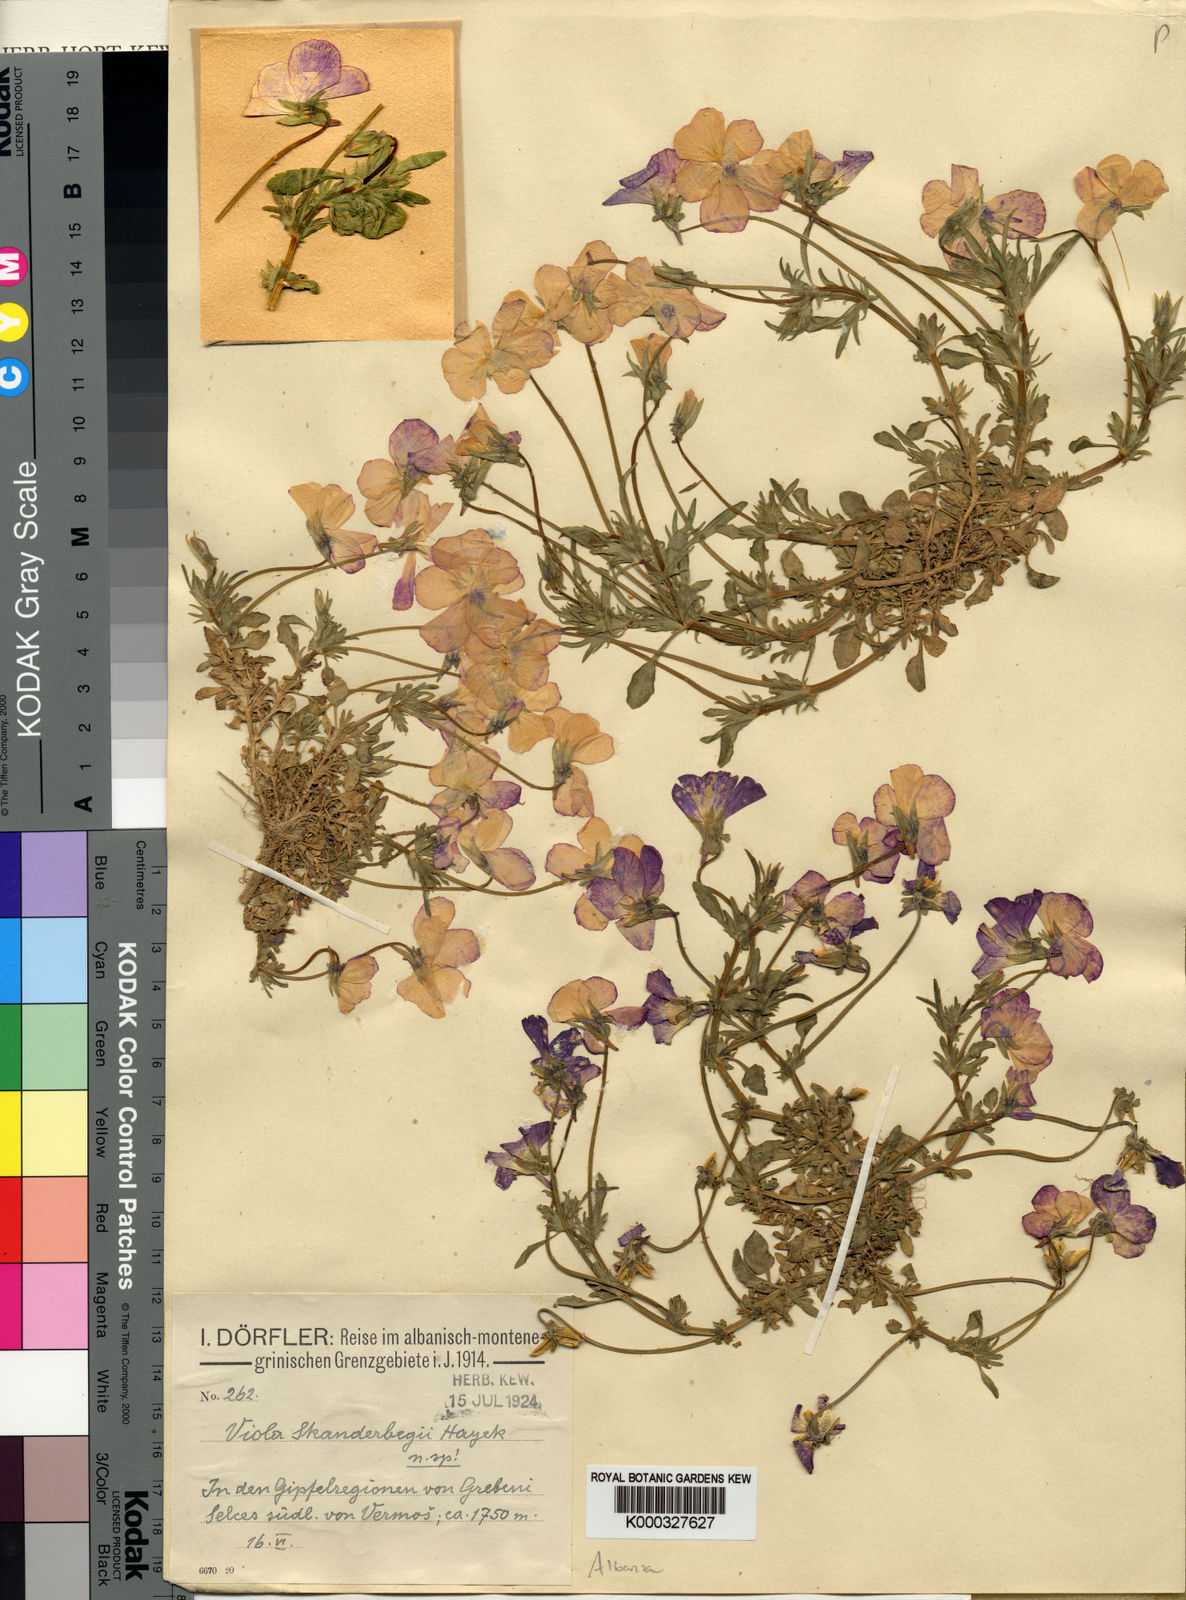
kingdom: Plantae
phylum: Tracheophyta
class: Magnoliopsida
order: Malpighiales
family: Violaceae
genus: Viola
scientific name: Viola
